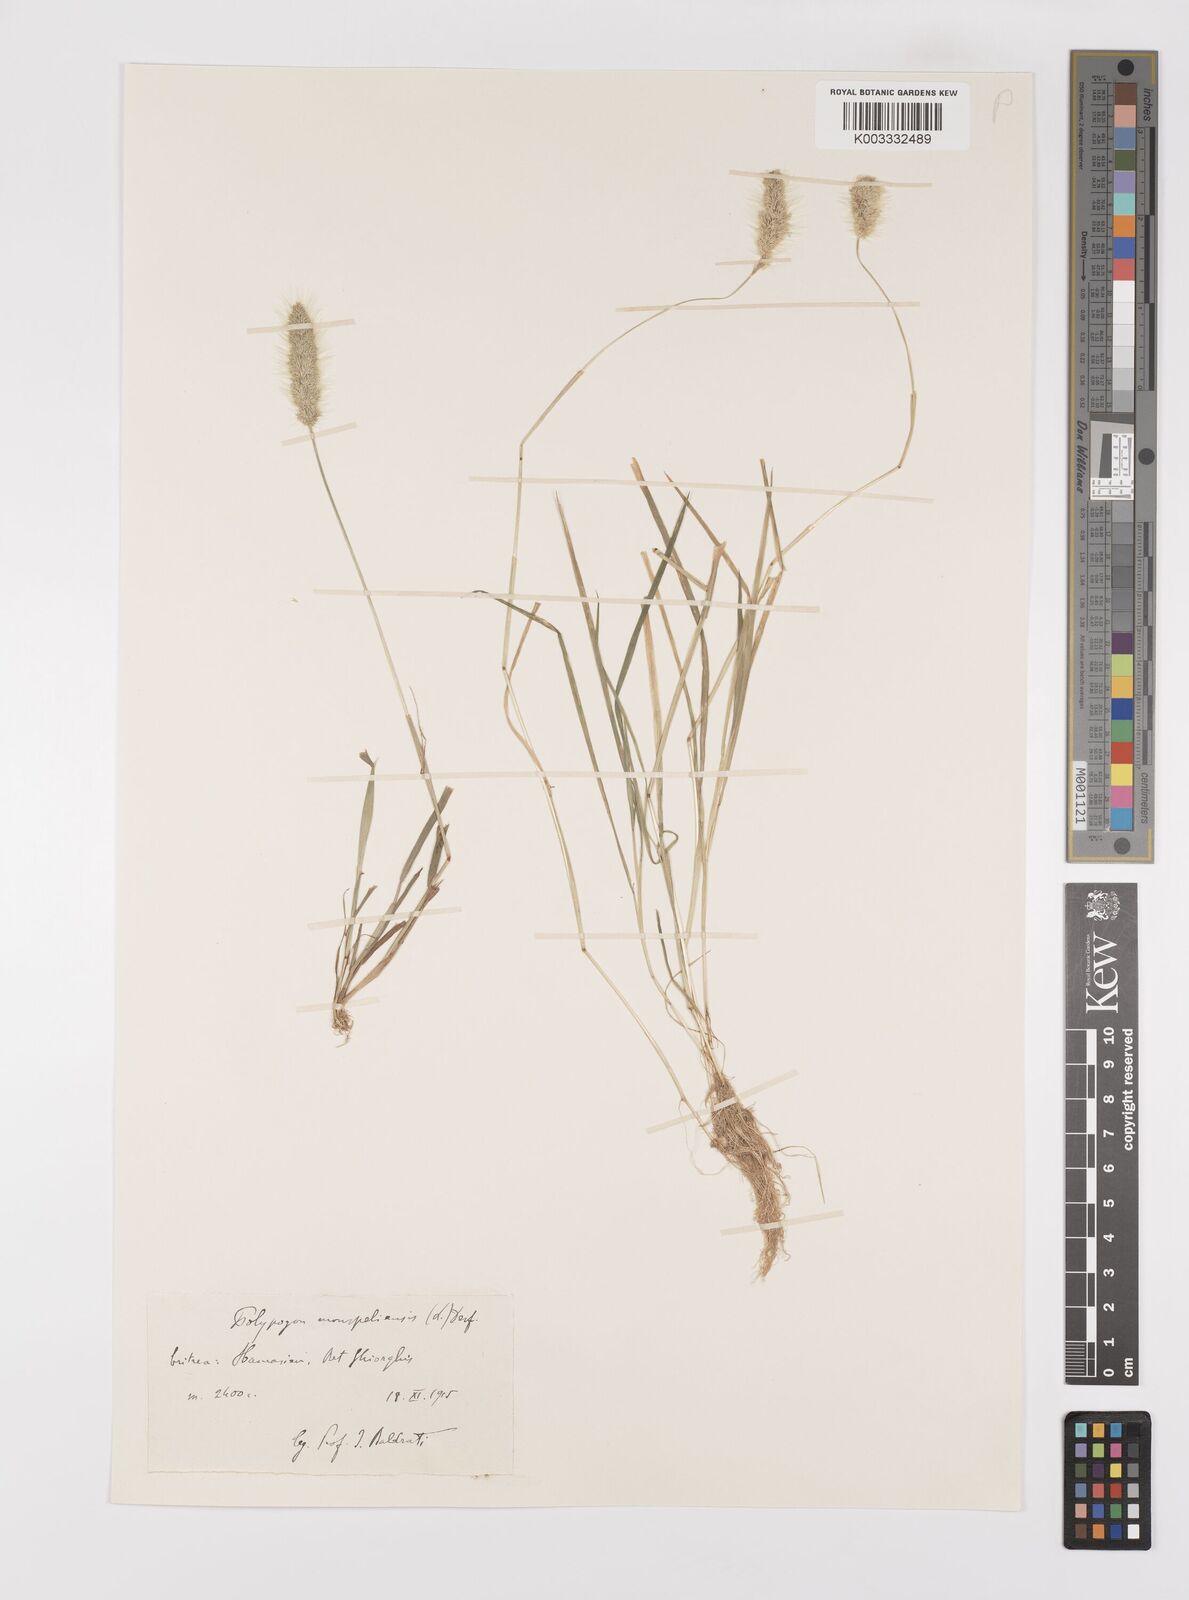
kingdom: Plantae
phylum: Tracheophyta
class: Liliopsida
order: Poales
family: Poaceae
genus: Polypogon
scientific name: Polypogon monspeliensis
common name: Annual rabbitsfoot grass
